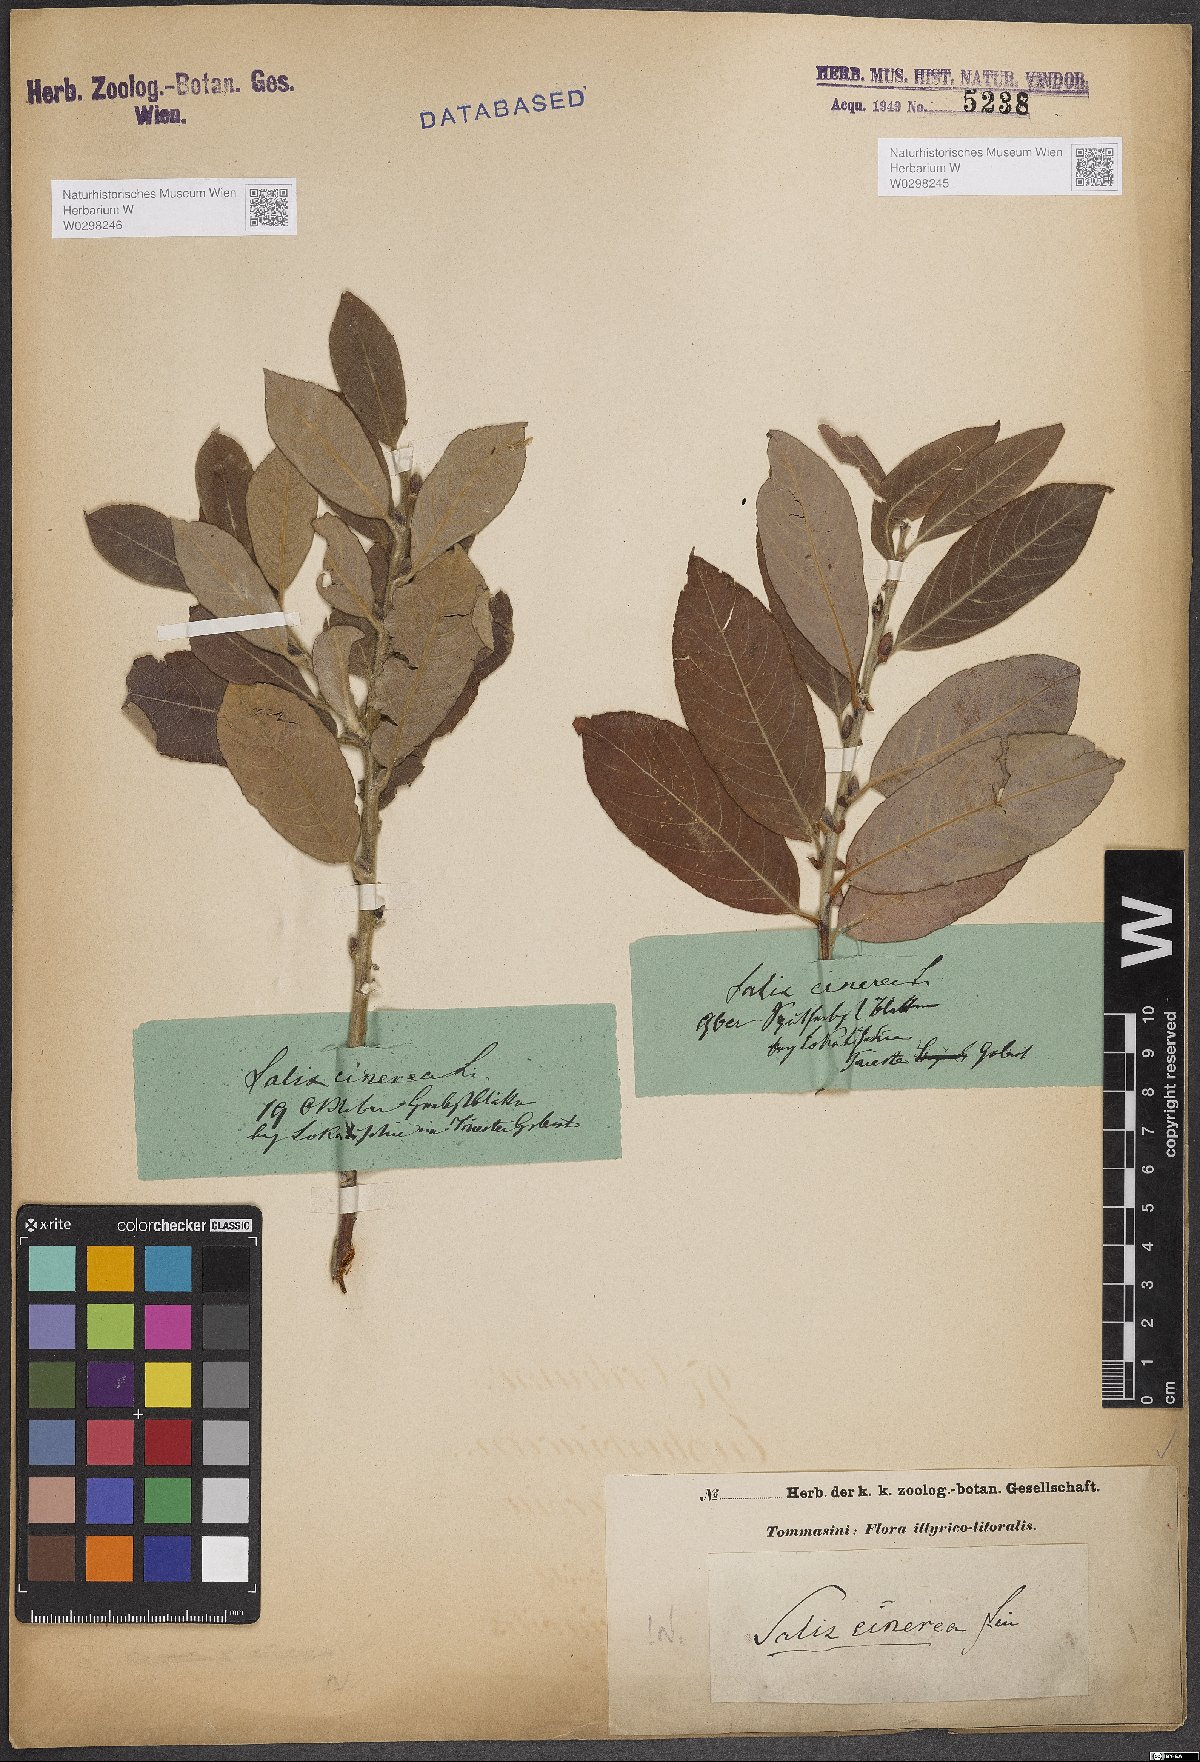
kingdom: Plantae
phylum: Tracheophyta
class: Magnoliopsida
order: Malpighiales
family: Salicaceae
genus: Salix
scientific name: Salix cinerea
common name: Common sallow
